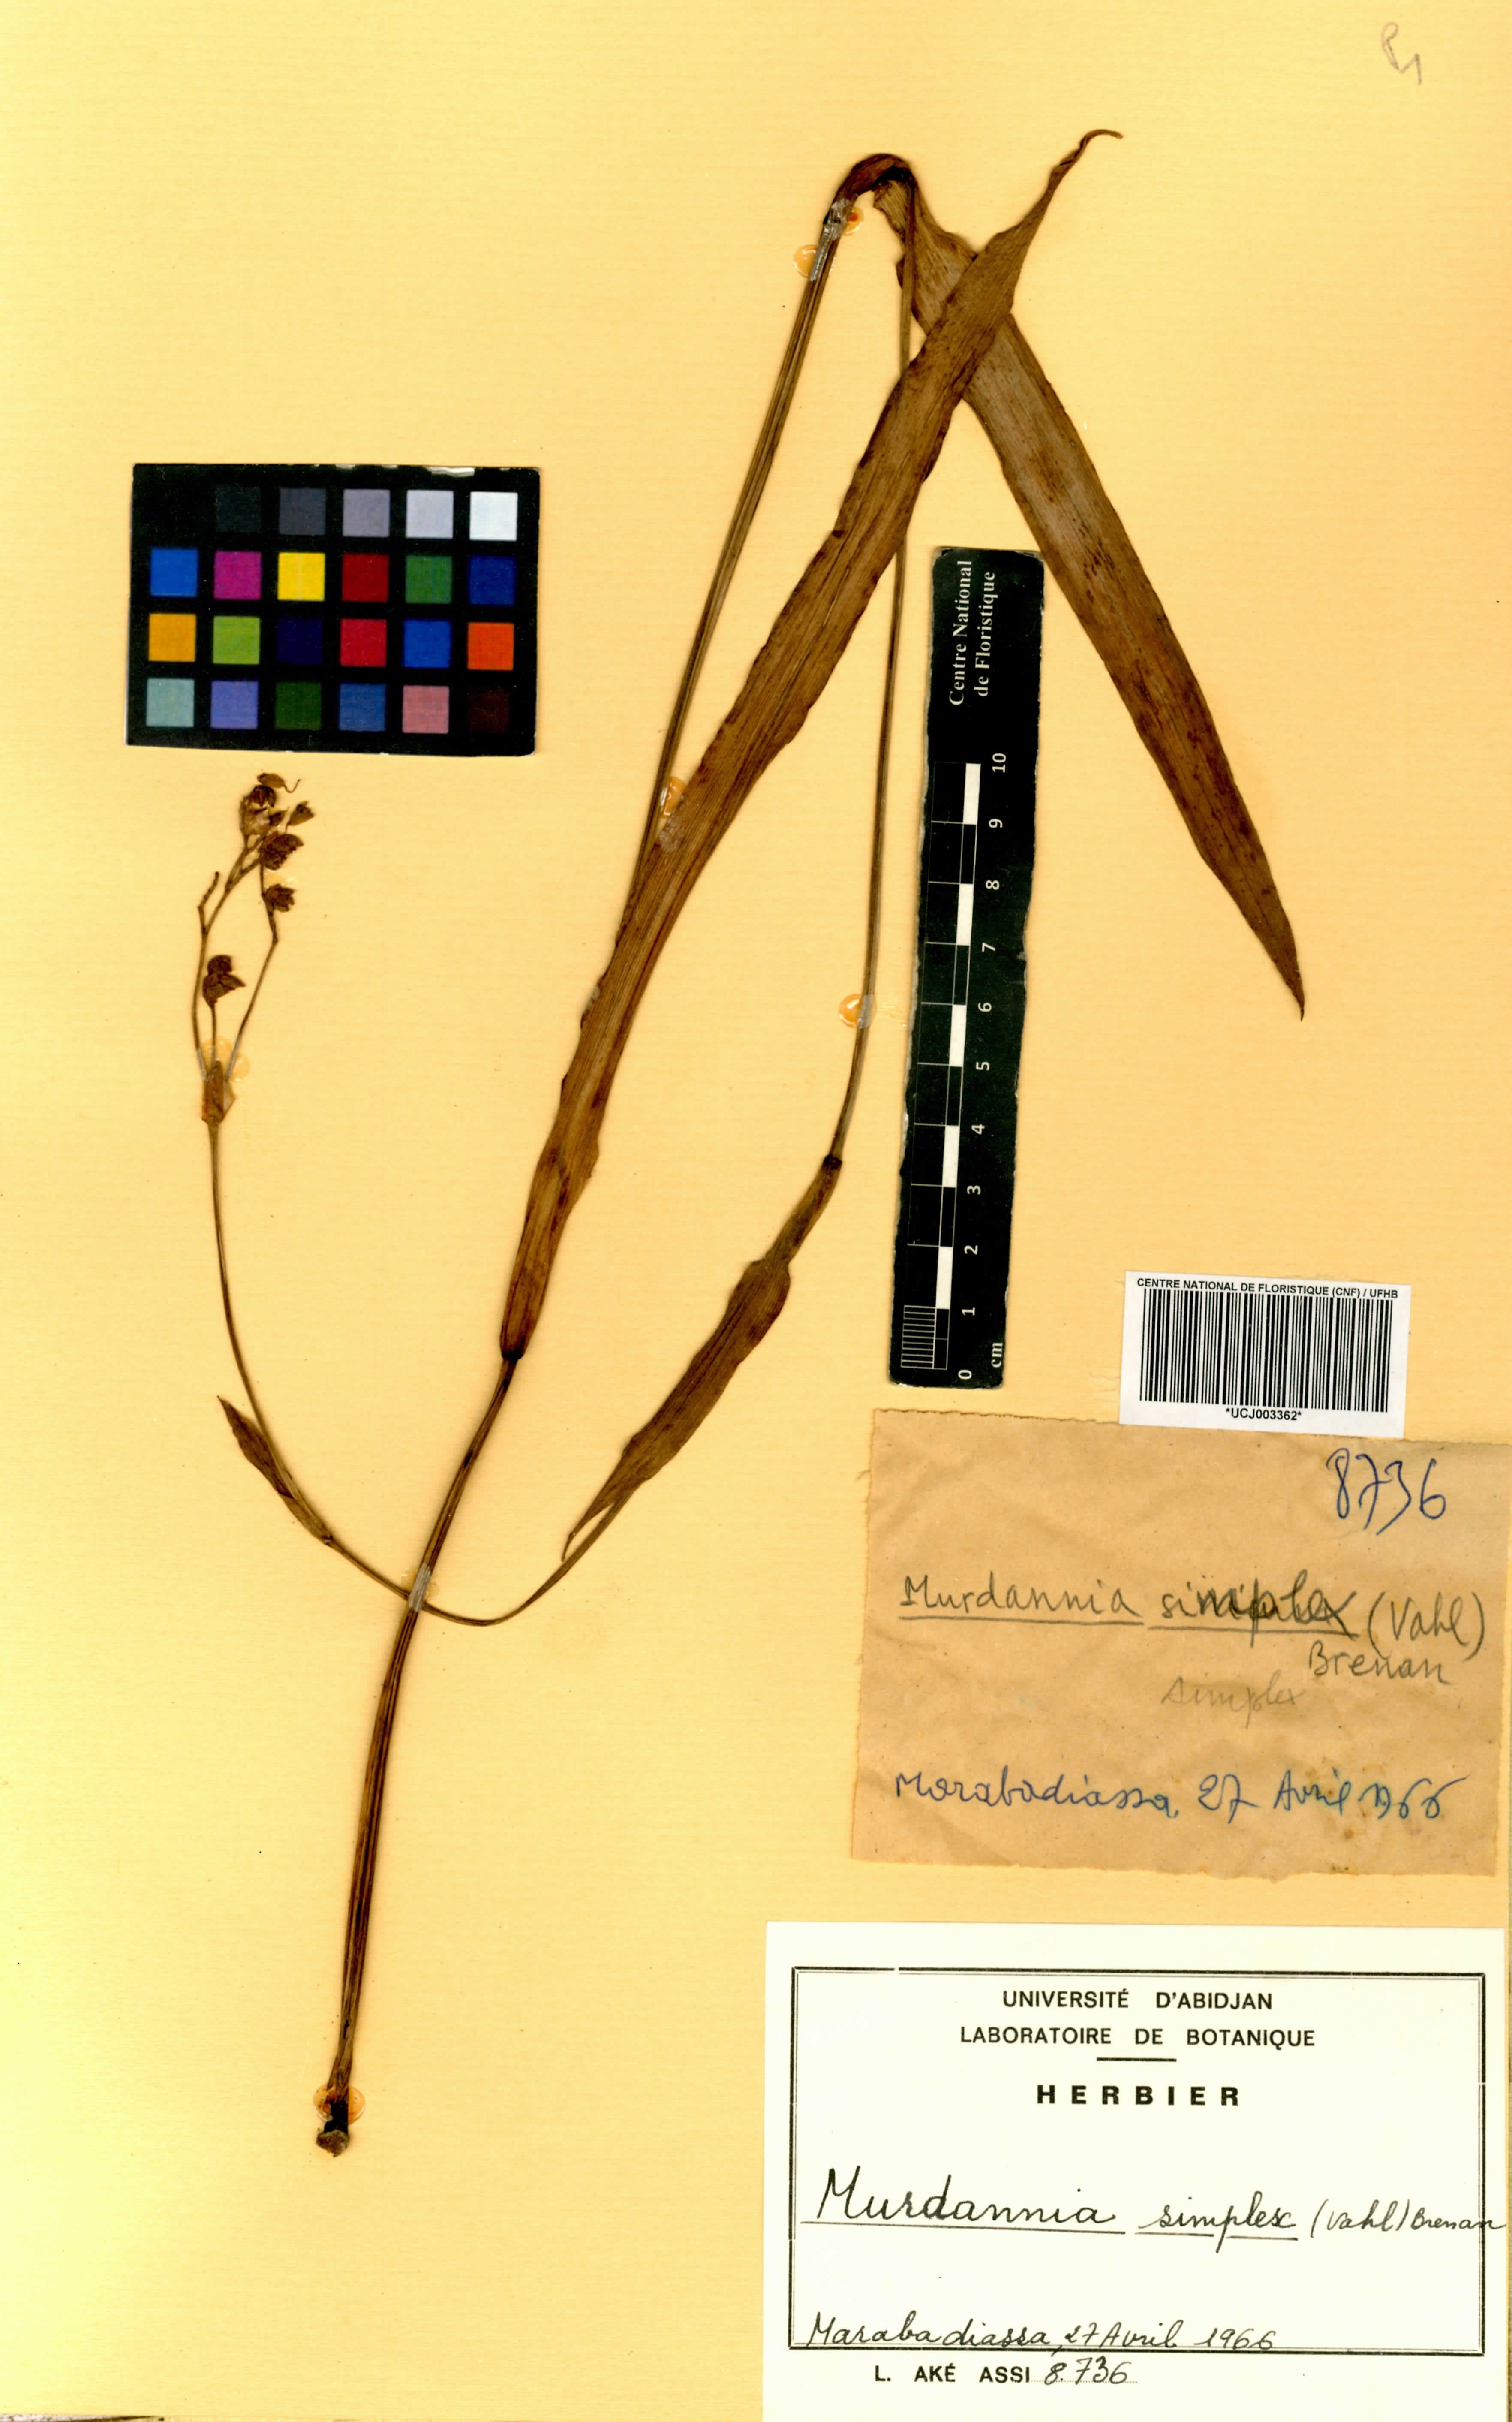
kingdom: Plantae
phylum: Tracheophyta
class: Liliopsida
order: Commelinales
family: Commelinaceae
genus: Murdannia
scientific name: Murdannia simplex
